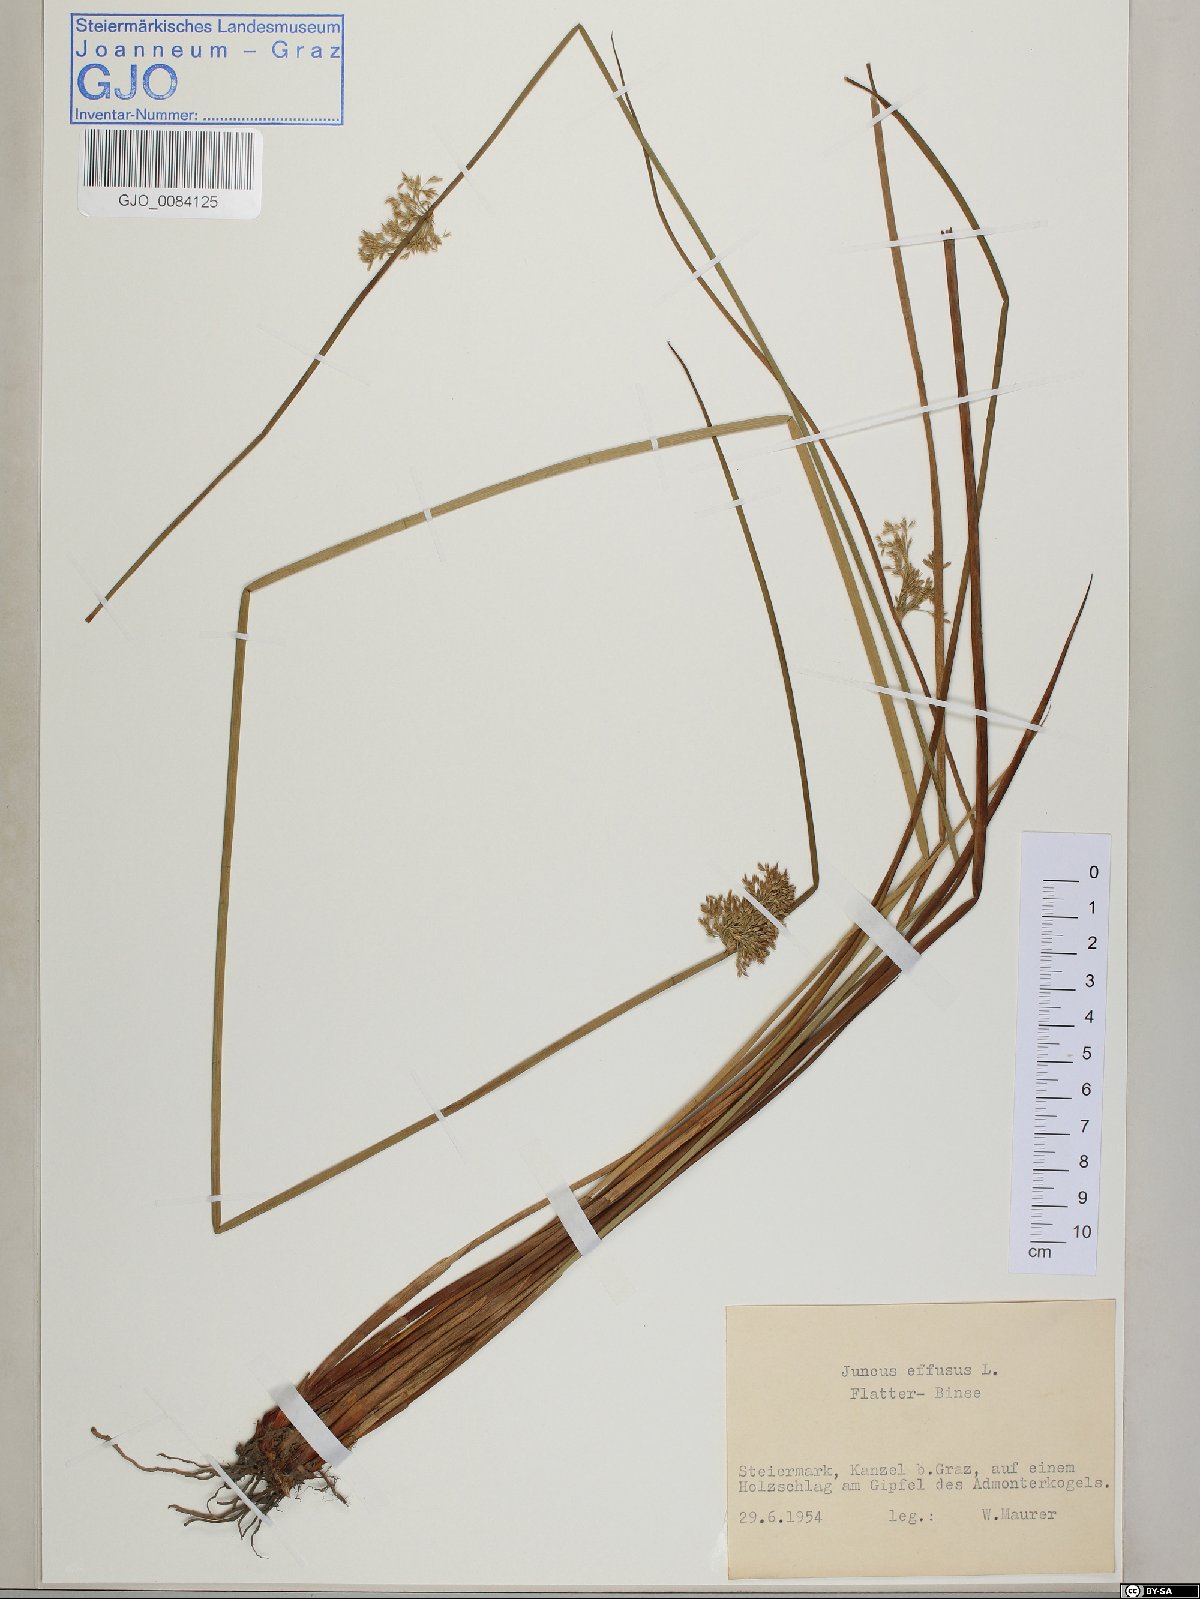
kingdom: Plantae
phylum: Tracheophyta
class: Liliopsida
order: Poales
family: Juncaceae
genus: Juncus
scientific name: Juncus effusus
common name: Soft rush
